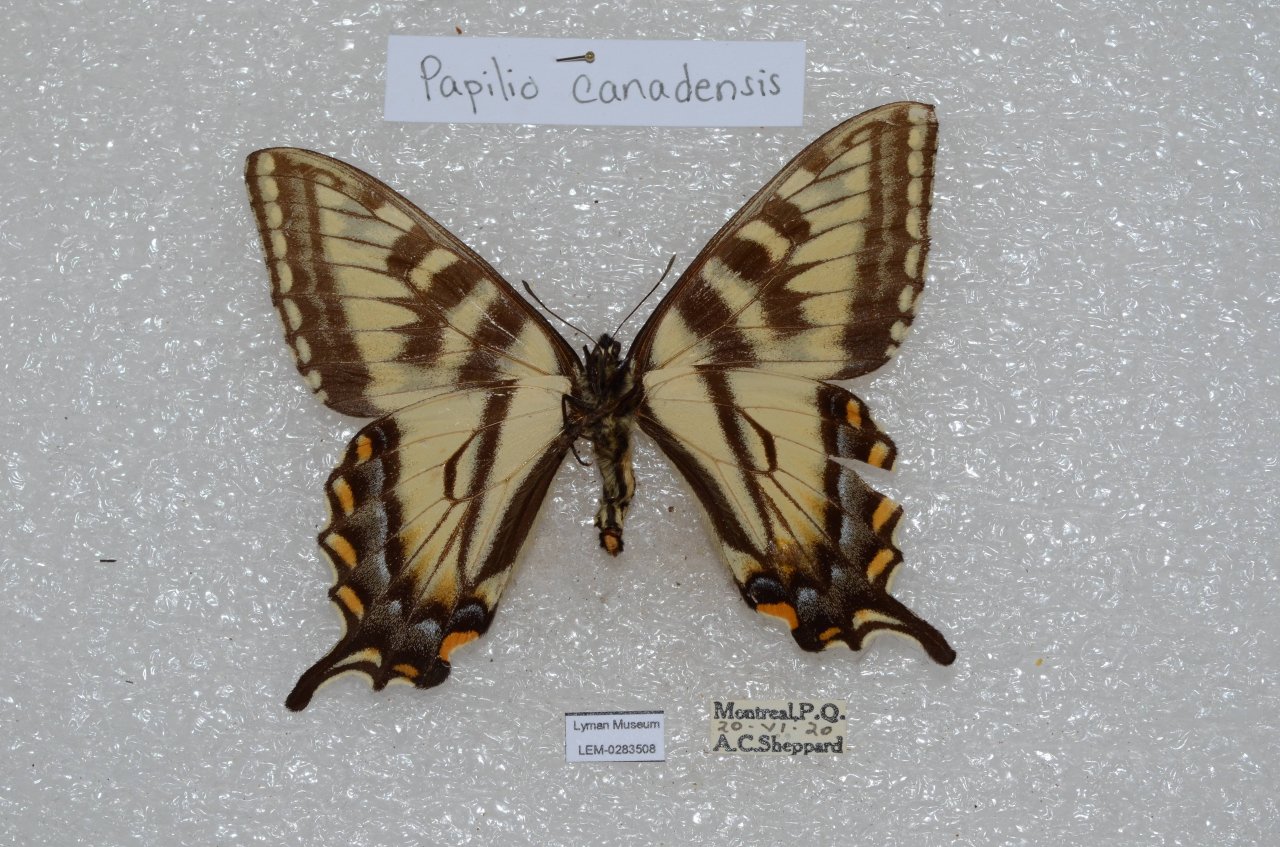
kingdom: Animalia
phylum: Arthropoda
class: Insecta
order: Lepidoptera
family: Papilionidae
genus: Pterourus
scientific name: Pterourus canadensis
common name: Canadian Tiger Swallowtail
